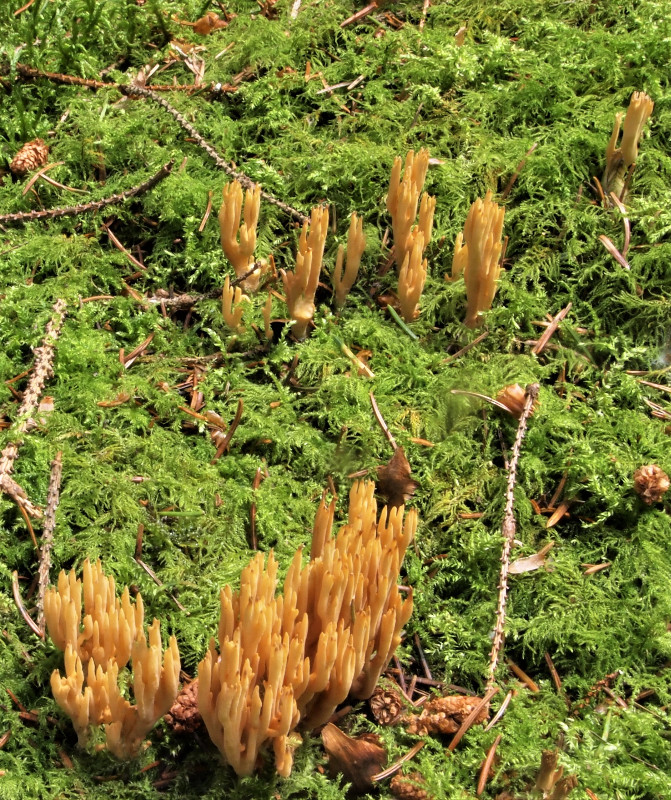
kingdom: Fungi
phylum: Basidiomycota
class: Agaricomycetes
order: Gomphales
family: Gomphaceae
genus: Phaeoclavulina
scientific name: Phaeoclavulina eumorpha
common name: gran-koralsvamp
